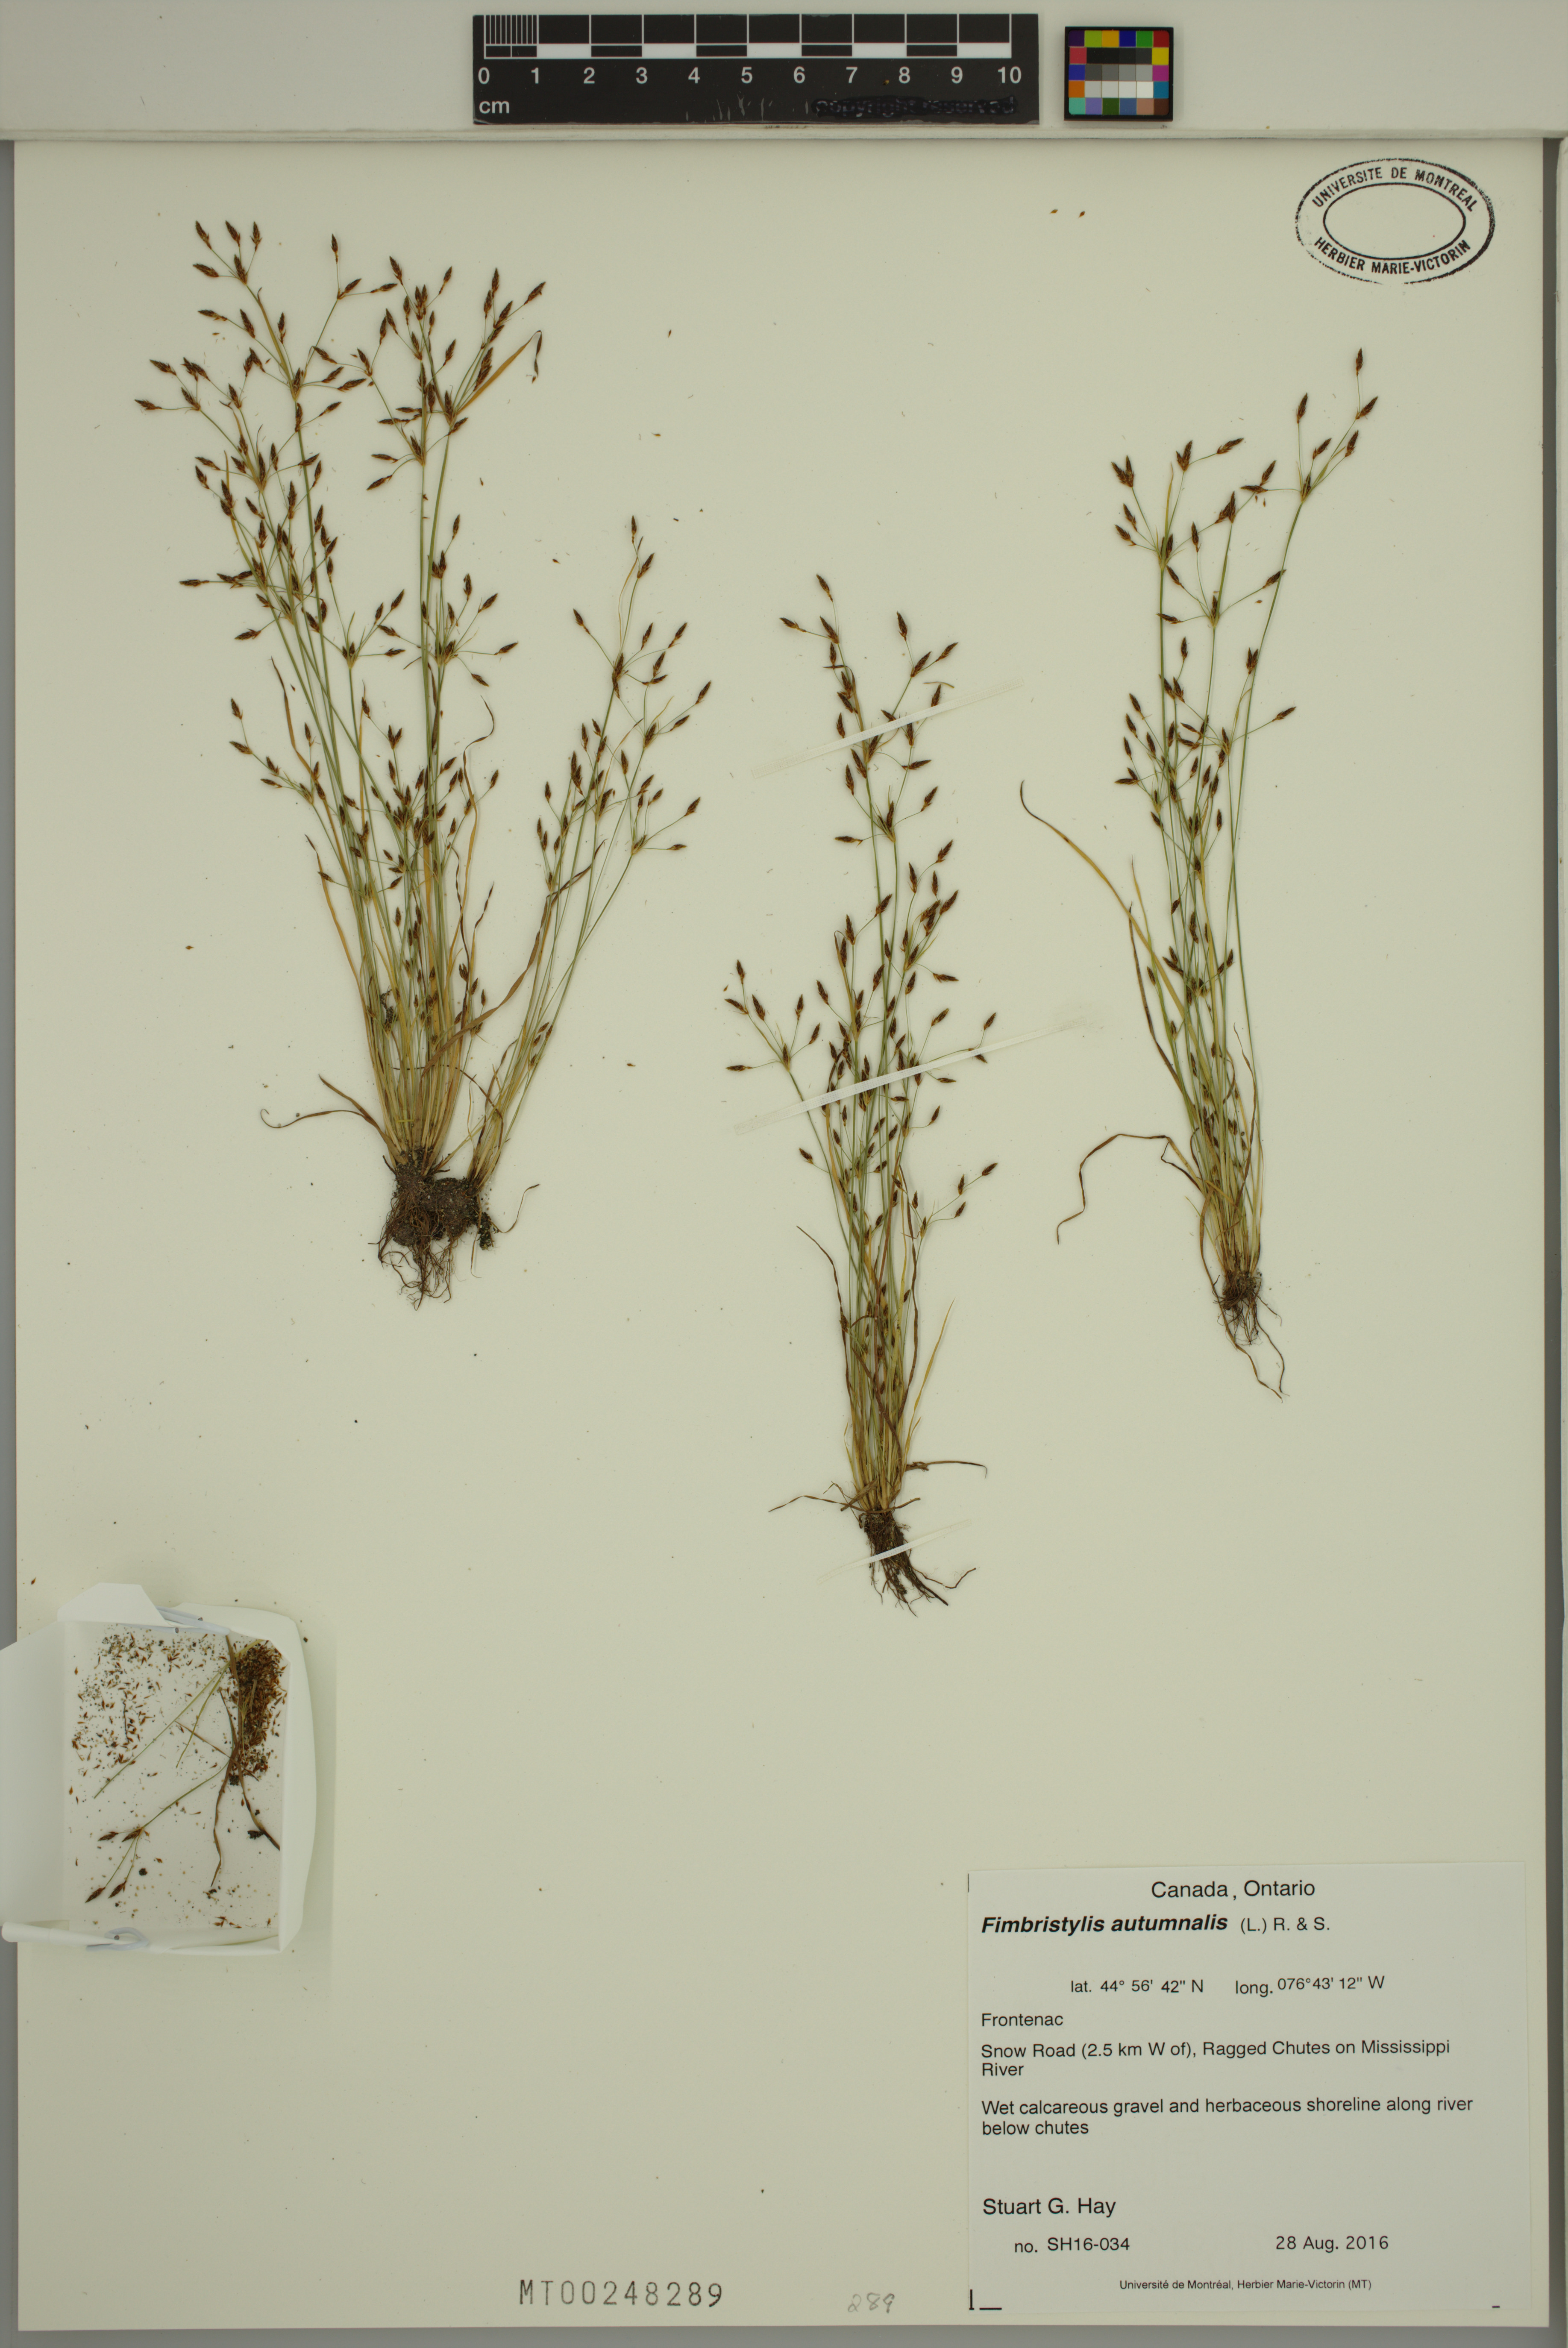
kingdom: Plantae
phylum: Tracheophyta
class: Liliopsida
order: Poales
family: Cyperaceae
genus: Fimbristylis
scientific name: Fimbristylis autumnalis
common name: Slender fimbristylis
